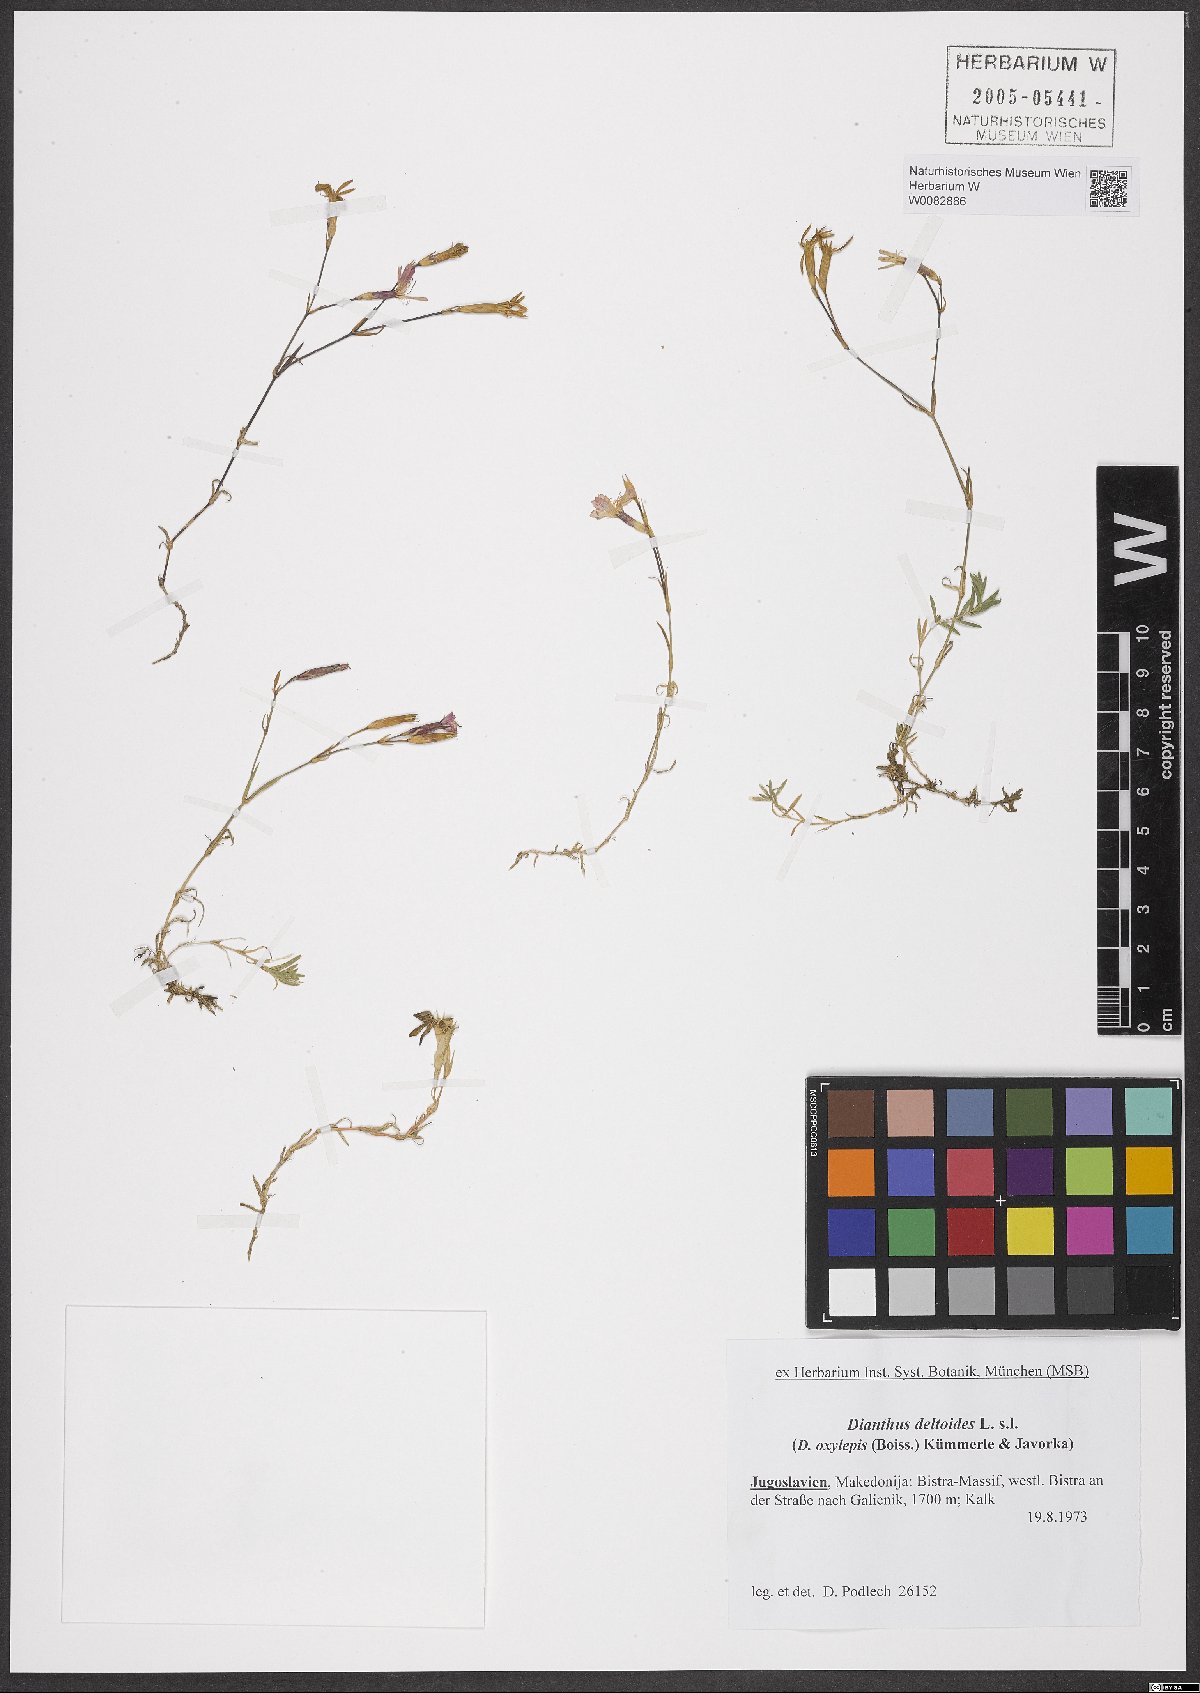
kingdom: Plantae
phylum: Tracheophyta
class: Magnoliopsida
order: Caryophyllales
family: Caryophyllaceae
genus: Dianthus
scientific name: Dianthus deltoides
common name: Maiden pink
